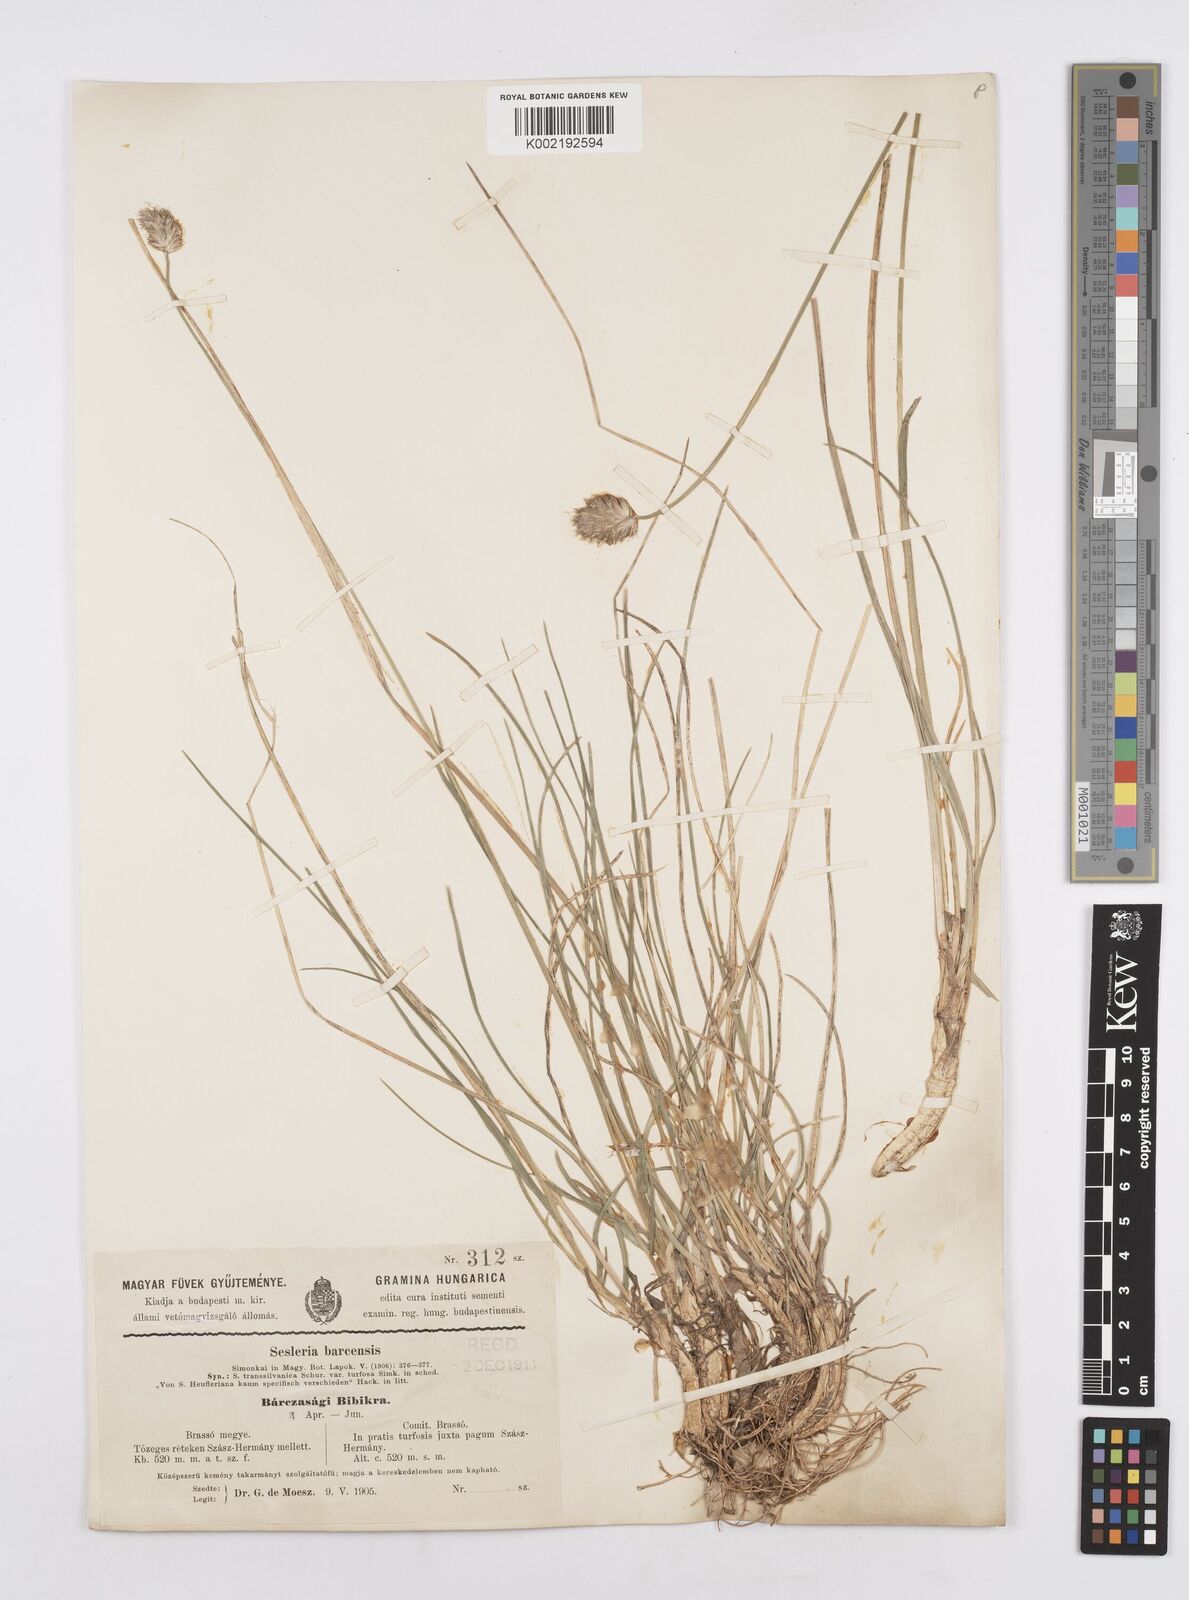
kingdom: Plantae
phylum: Tracheophyta
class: Liliopsida
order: Poales
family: Poaceae
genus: Sesleria
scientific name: Sesleria heufleriana
